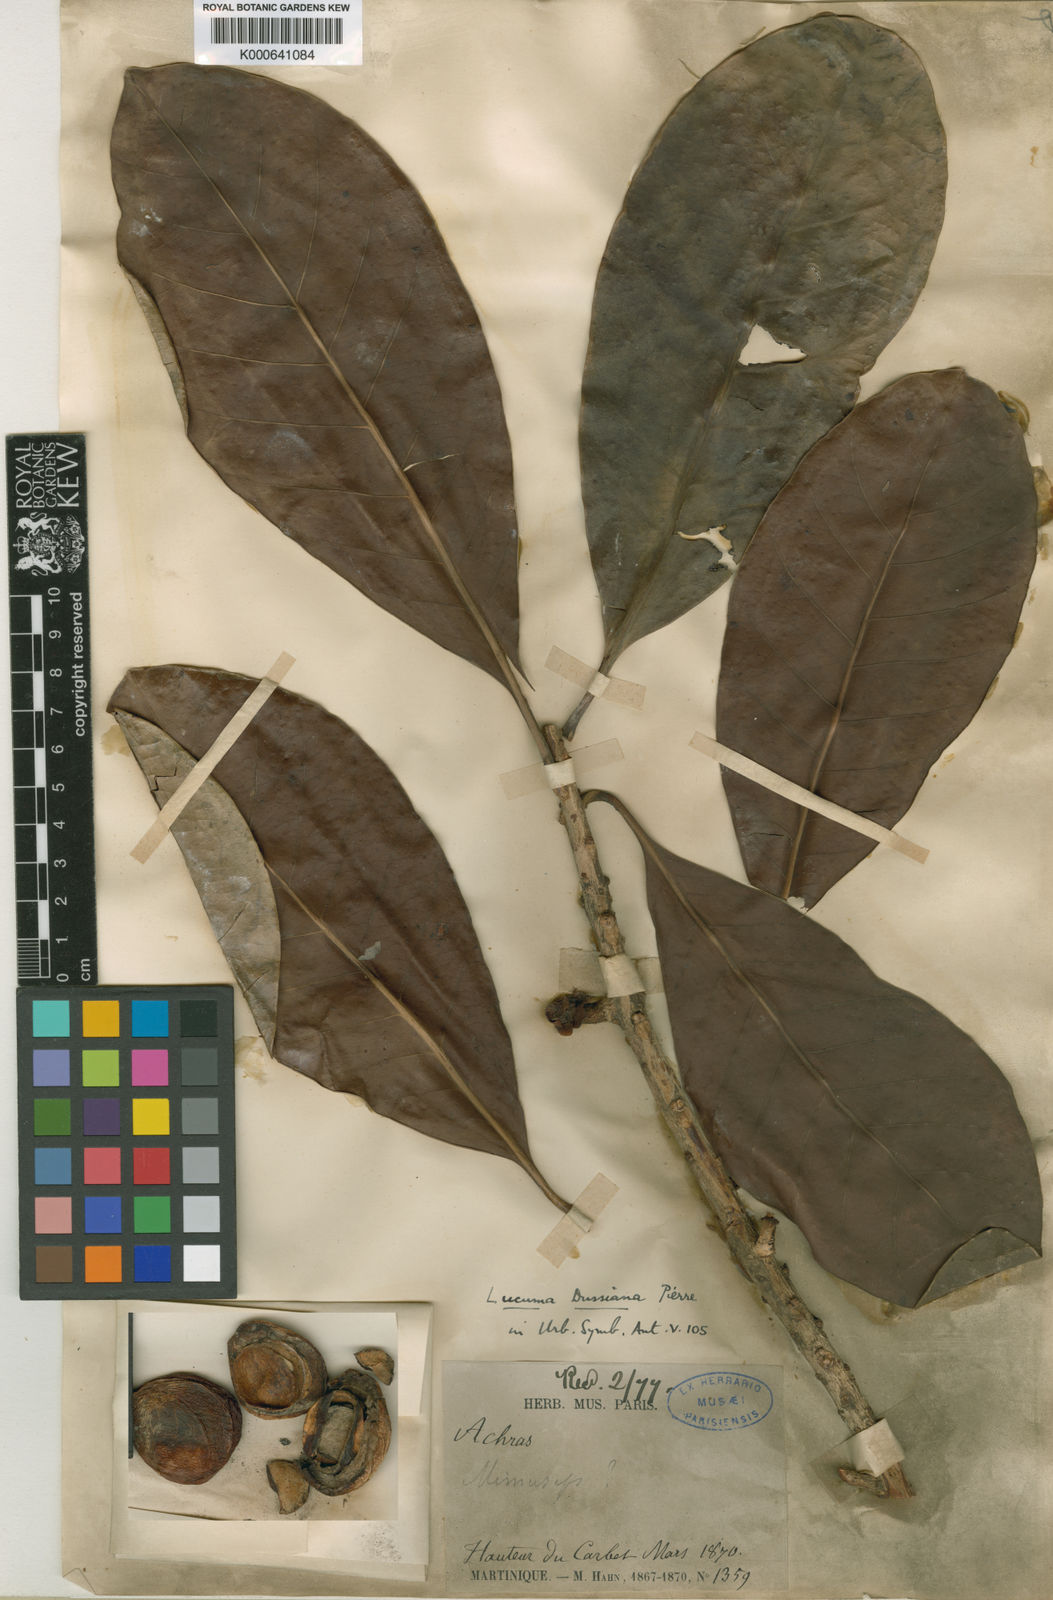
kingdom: Plantae
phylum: Tracheophyta
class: Magnoliopsida
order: Ericales
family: Sapotaceae
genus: Pouteria
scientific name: Pouteria
